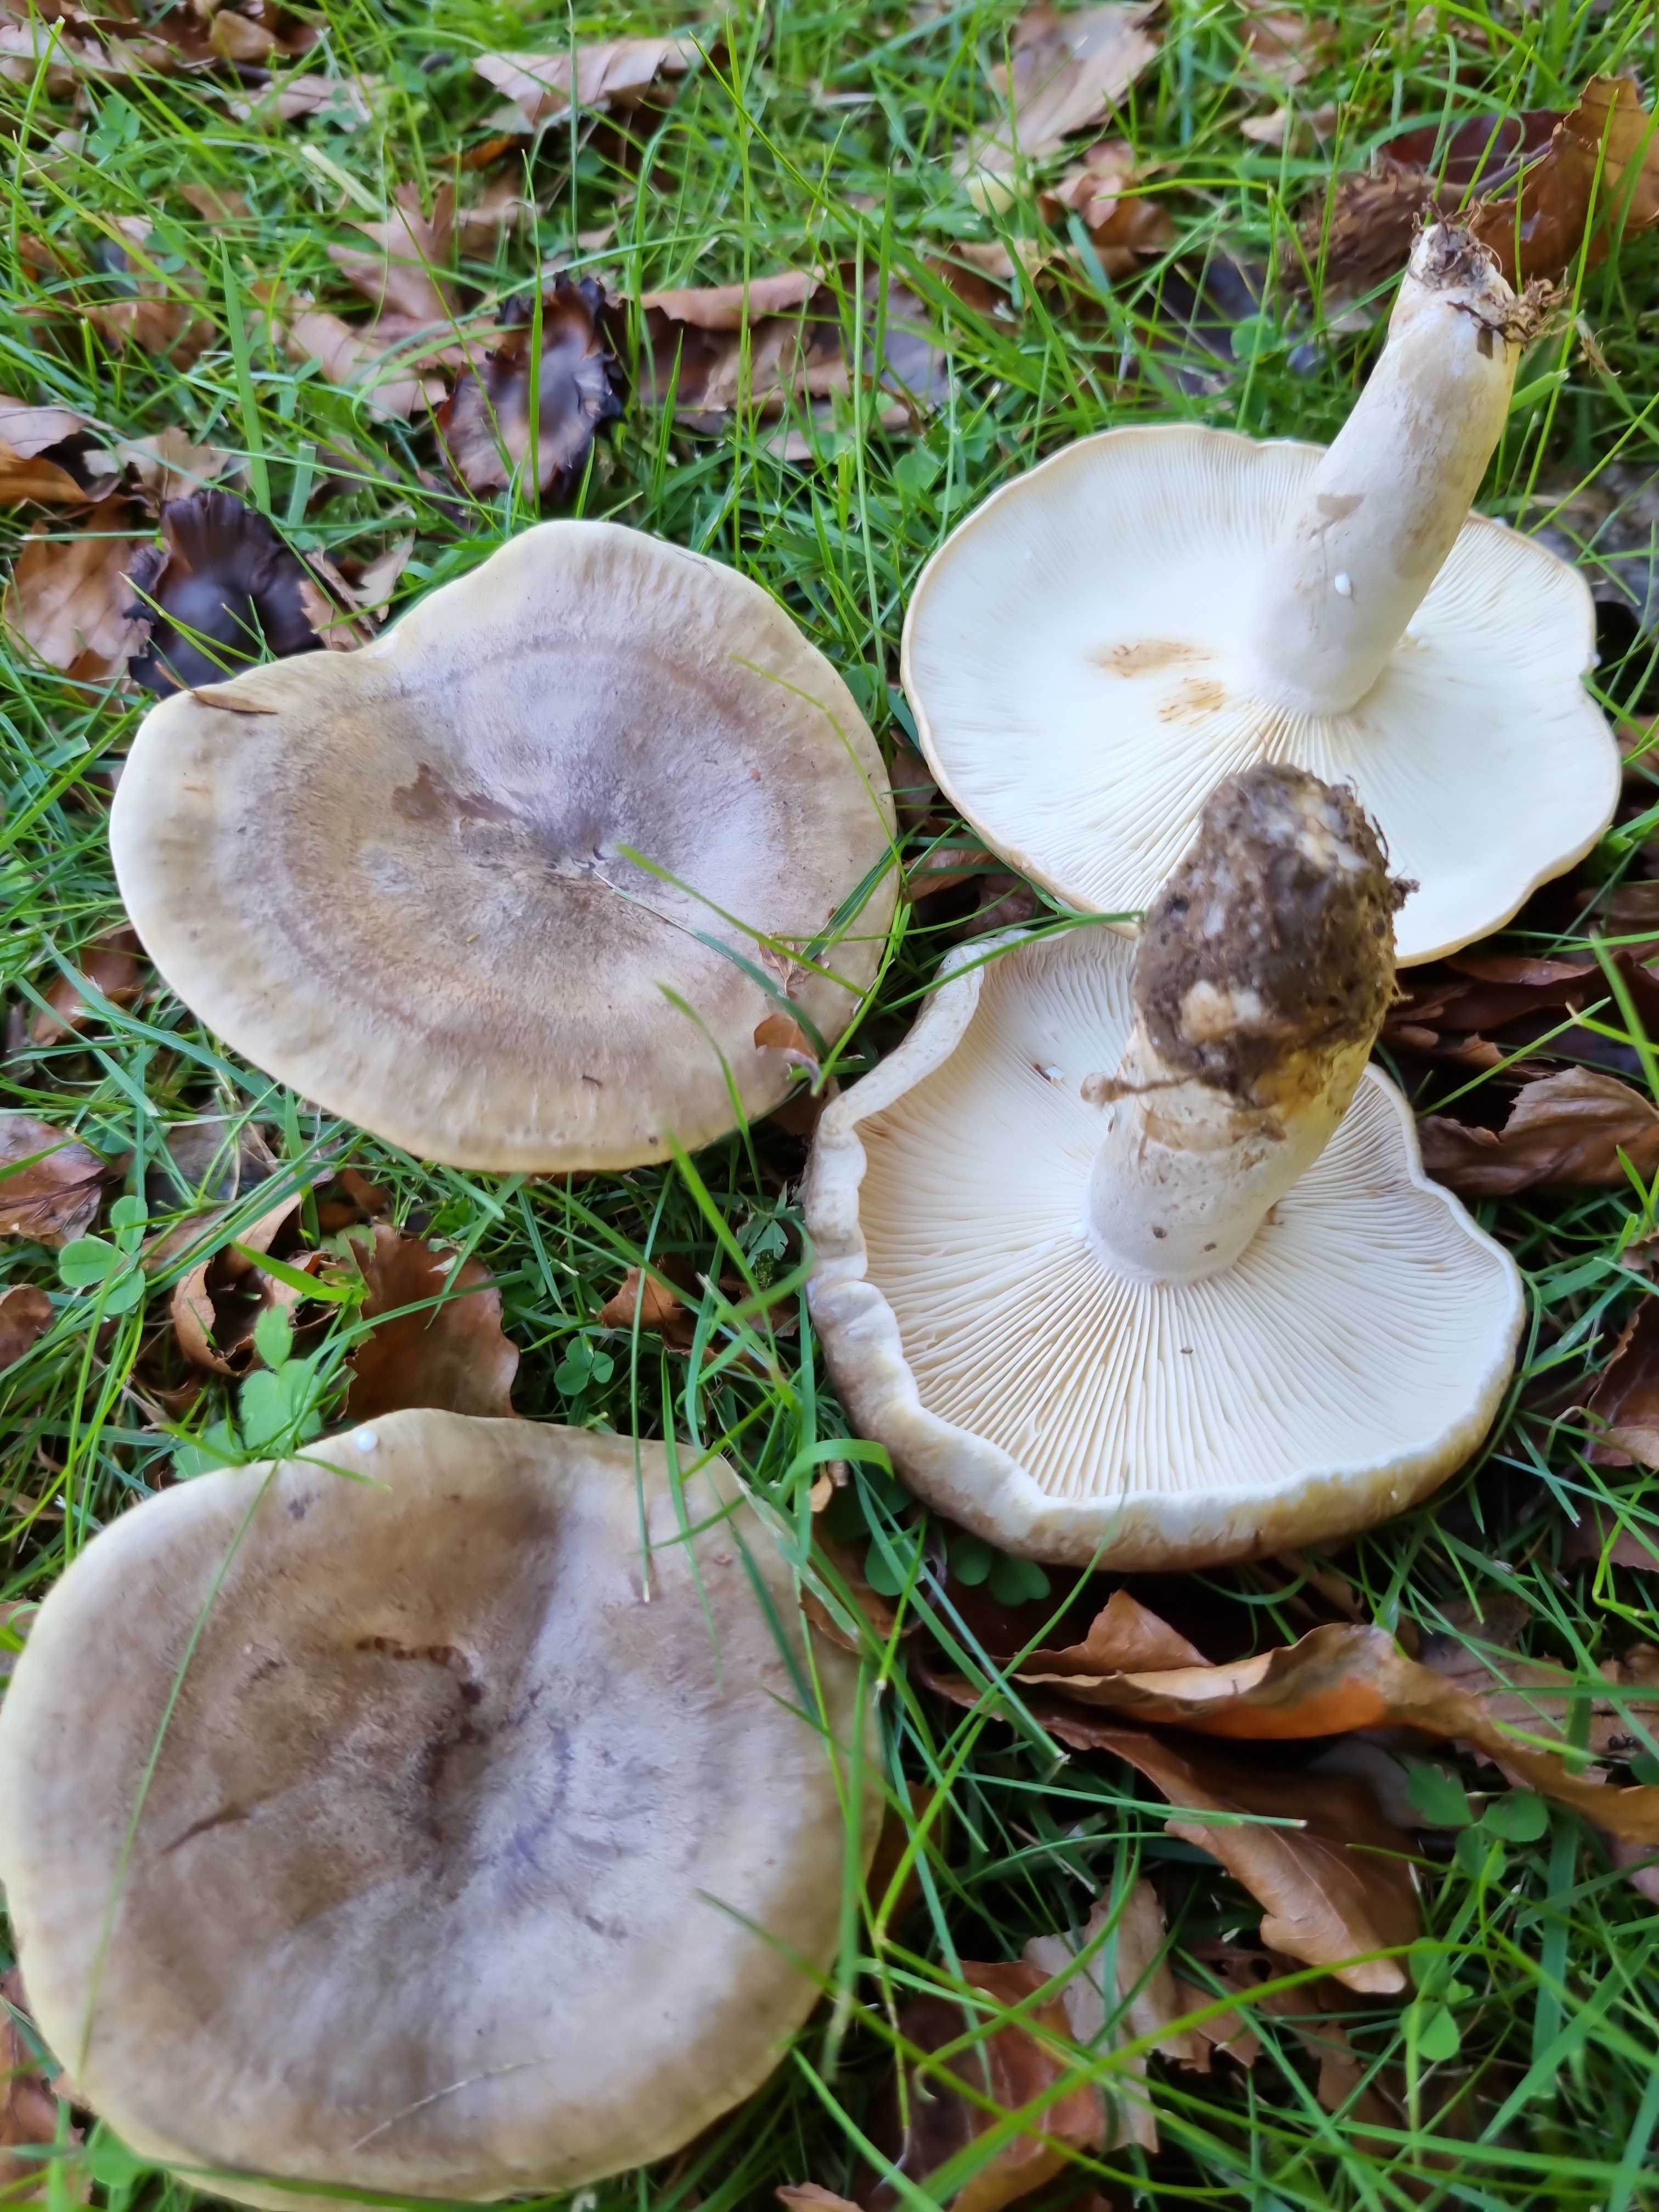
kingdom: Fungi
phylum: Basidiomycota
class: Agaricomycetes
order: Russulales
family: Russulaceae
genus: Lactarius
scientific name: Lactarius fluens
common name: lysrandet mælkehat
